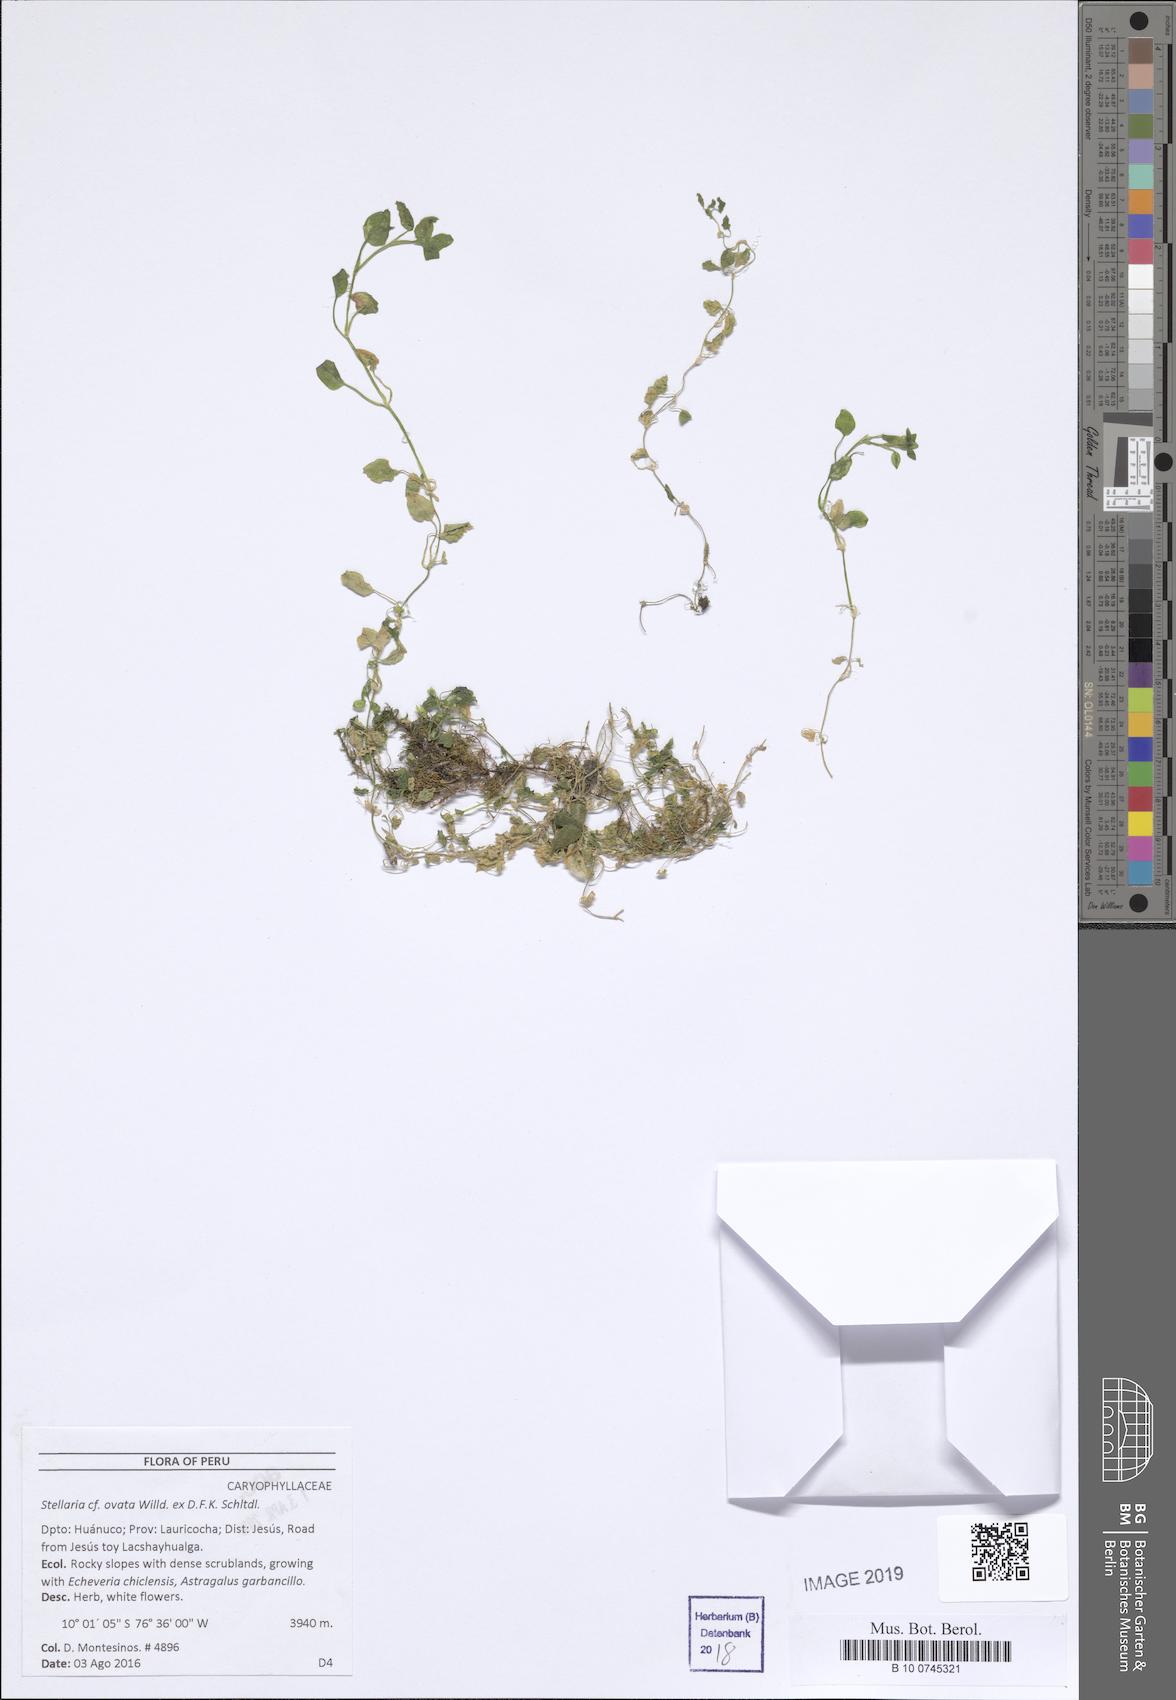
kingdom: Plantae
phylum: Tracheophyta
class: Magnoliopsida
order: Caryophyllales
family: Caryophyllaceae
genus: Stellaria
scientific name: Stellaria ovata
